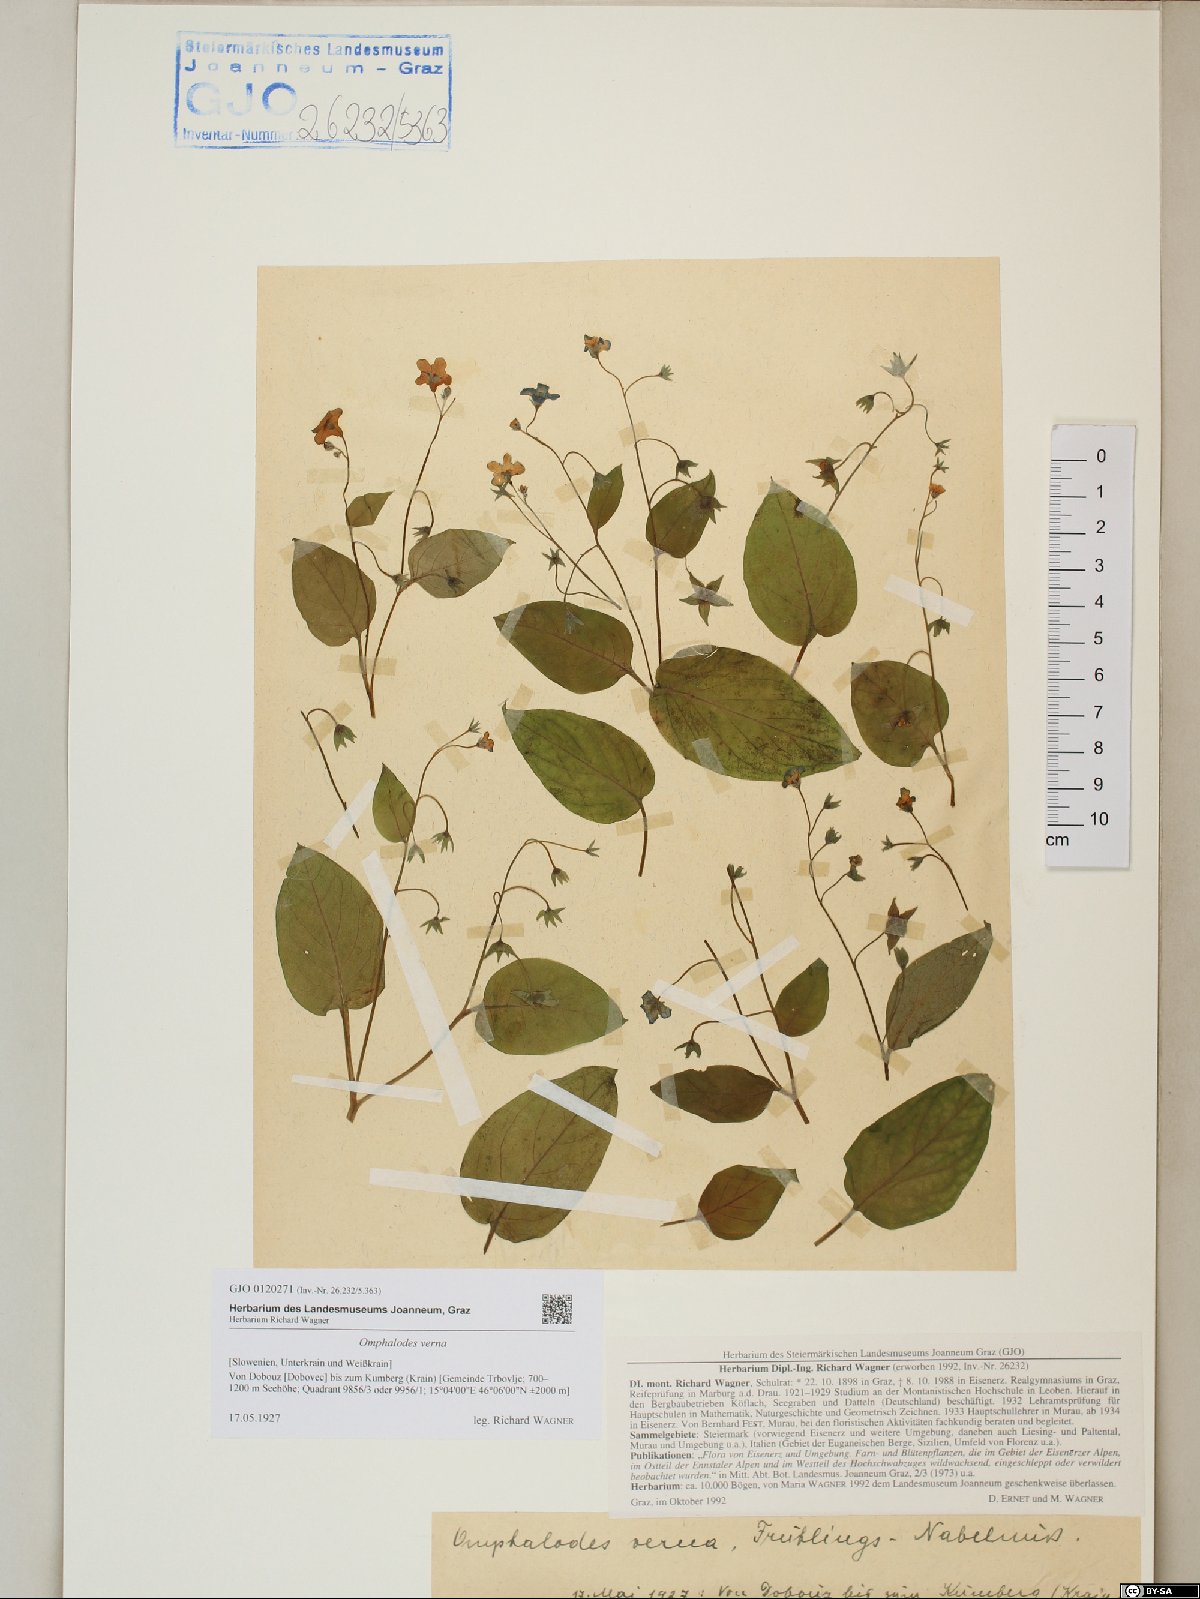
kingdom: Plantae
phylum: Tracheophyta
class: Magnoliopsida
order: Boraginales
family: Boraginaceae
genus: Omphalodes
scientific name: Omphalodes verna
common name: Blue-eyed-mary
